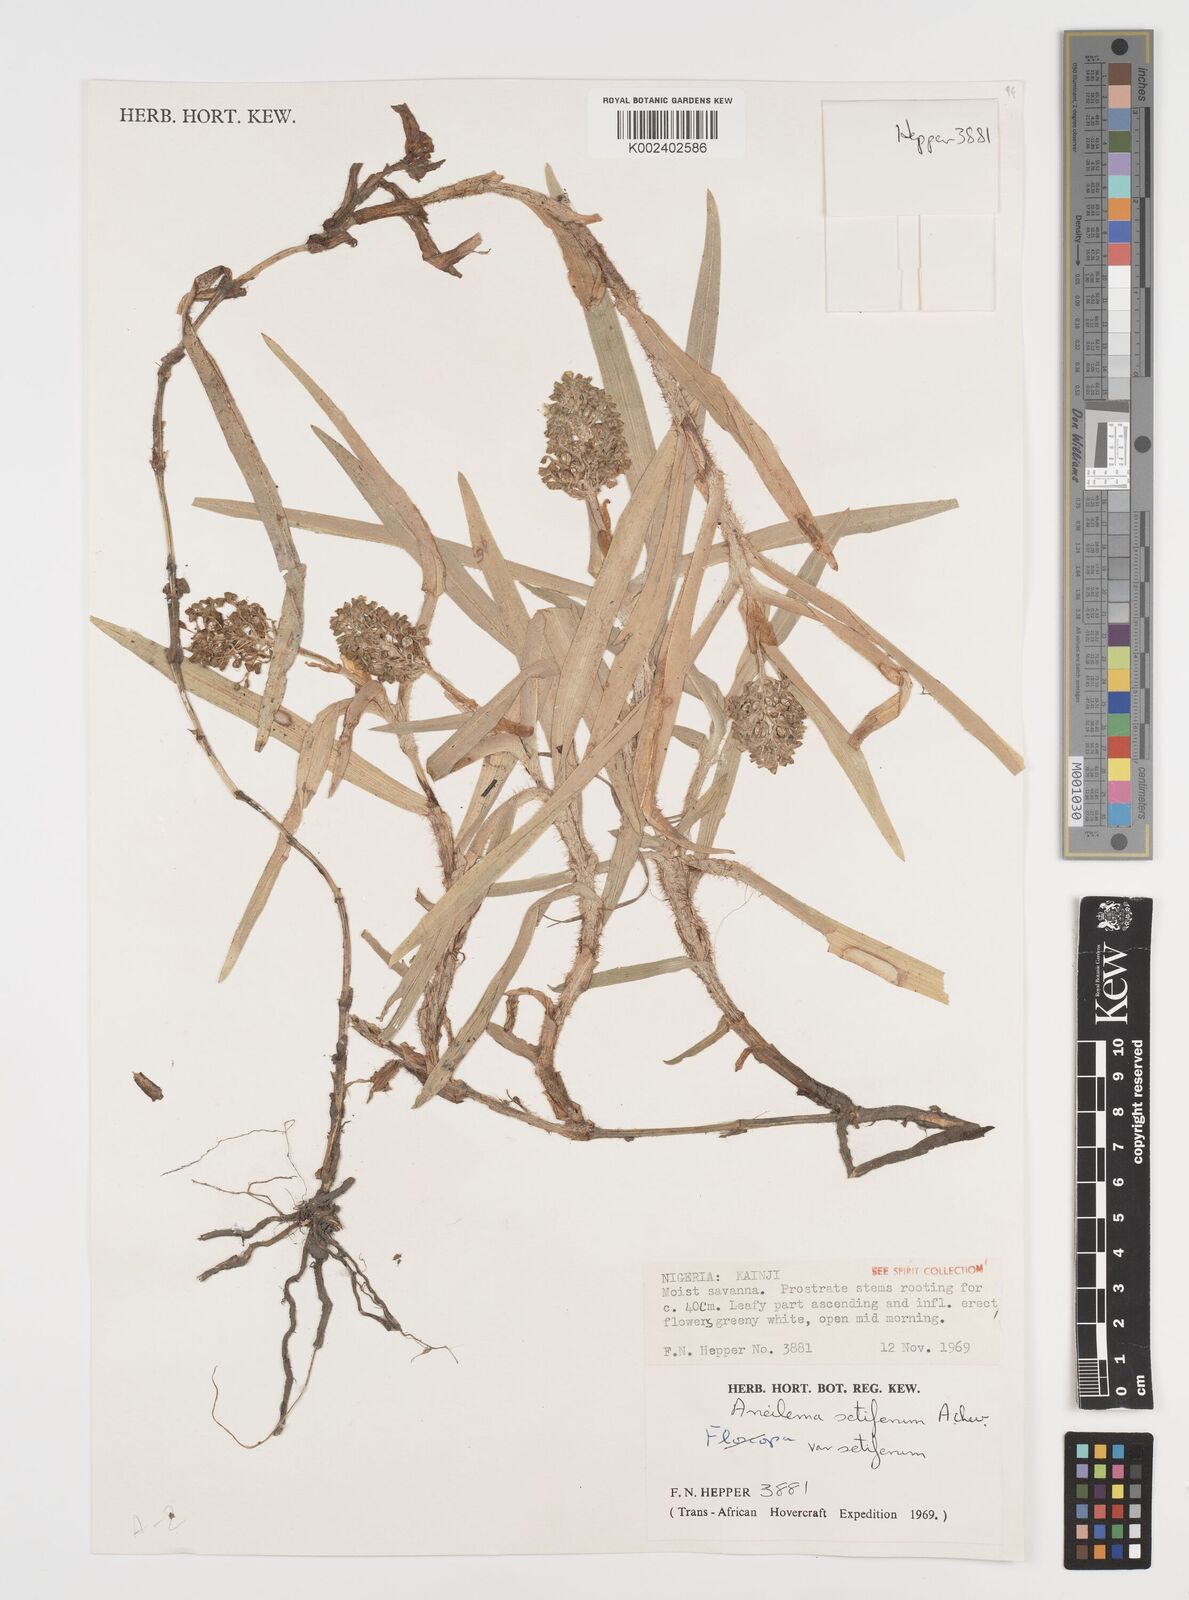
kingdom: Plantae
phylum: Tracheophyta
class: Liliopsida
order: Commelinales
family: Commelinaceae
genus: Aneilema
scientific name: Aneilema setiferum
